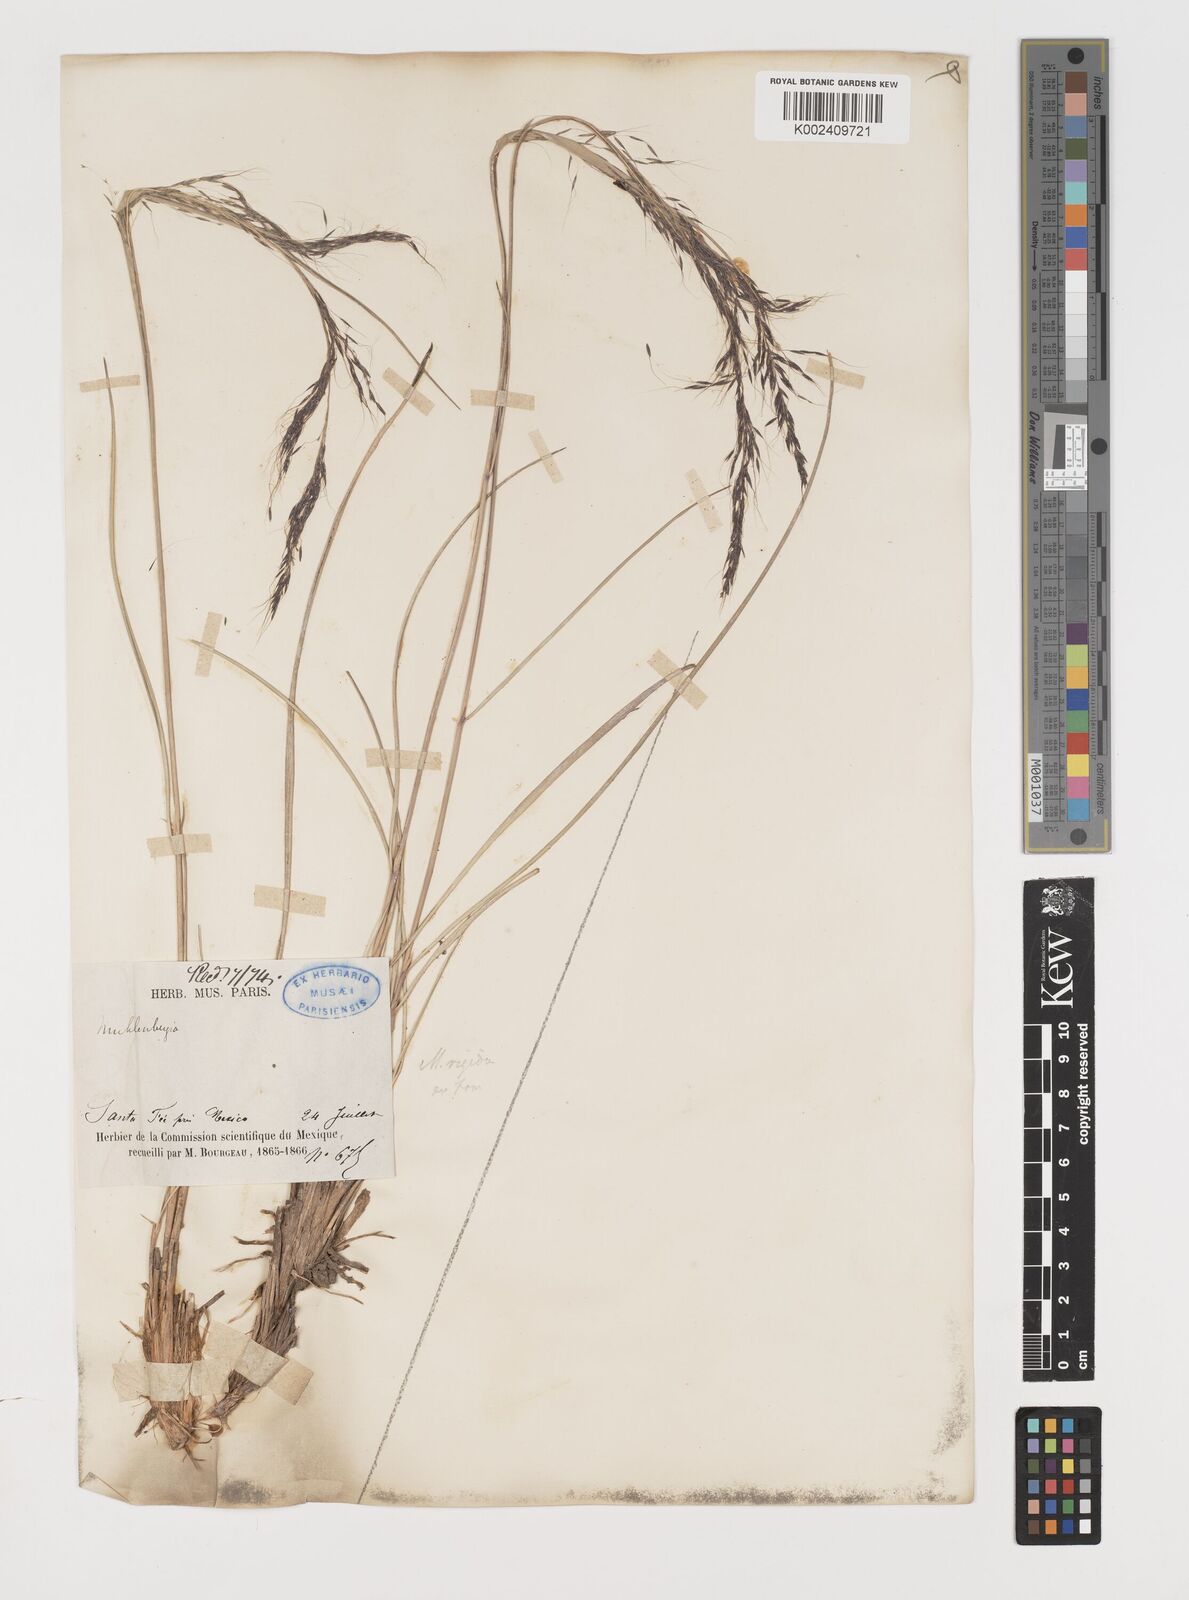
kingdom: Plantae
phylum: Tracheophyta
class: Liliopsida
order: Poales
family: Poaceae
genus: Muhlenbergia
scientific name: Muhlenbergia rigida
